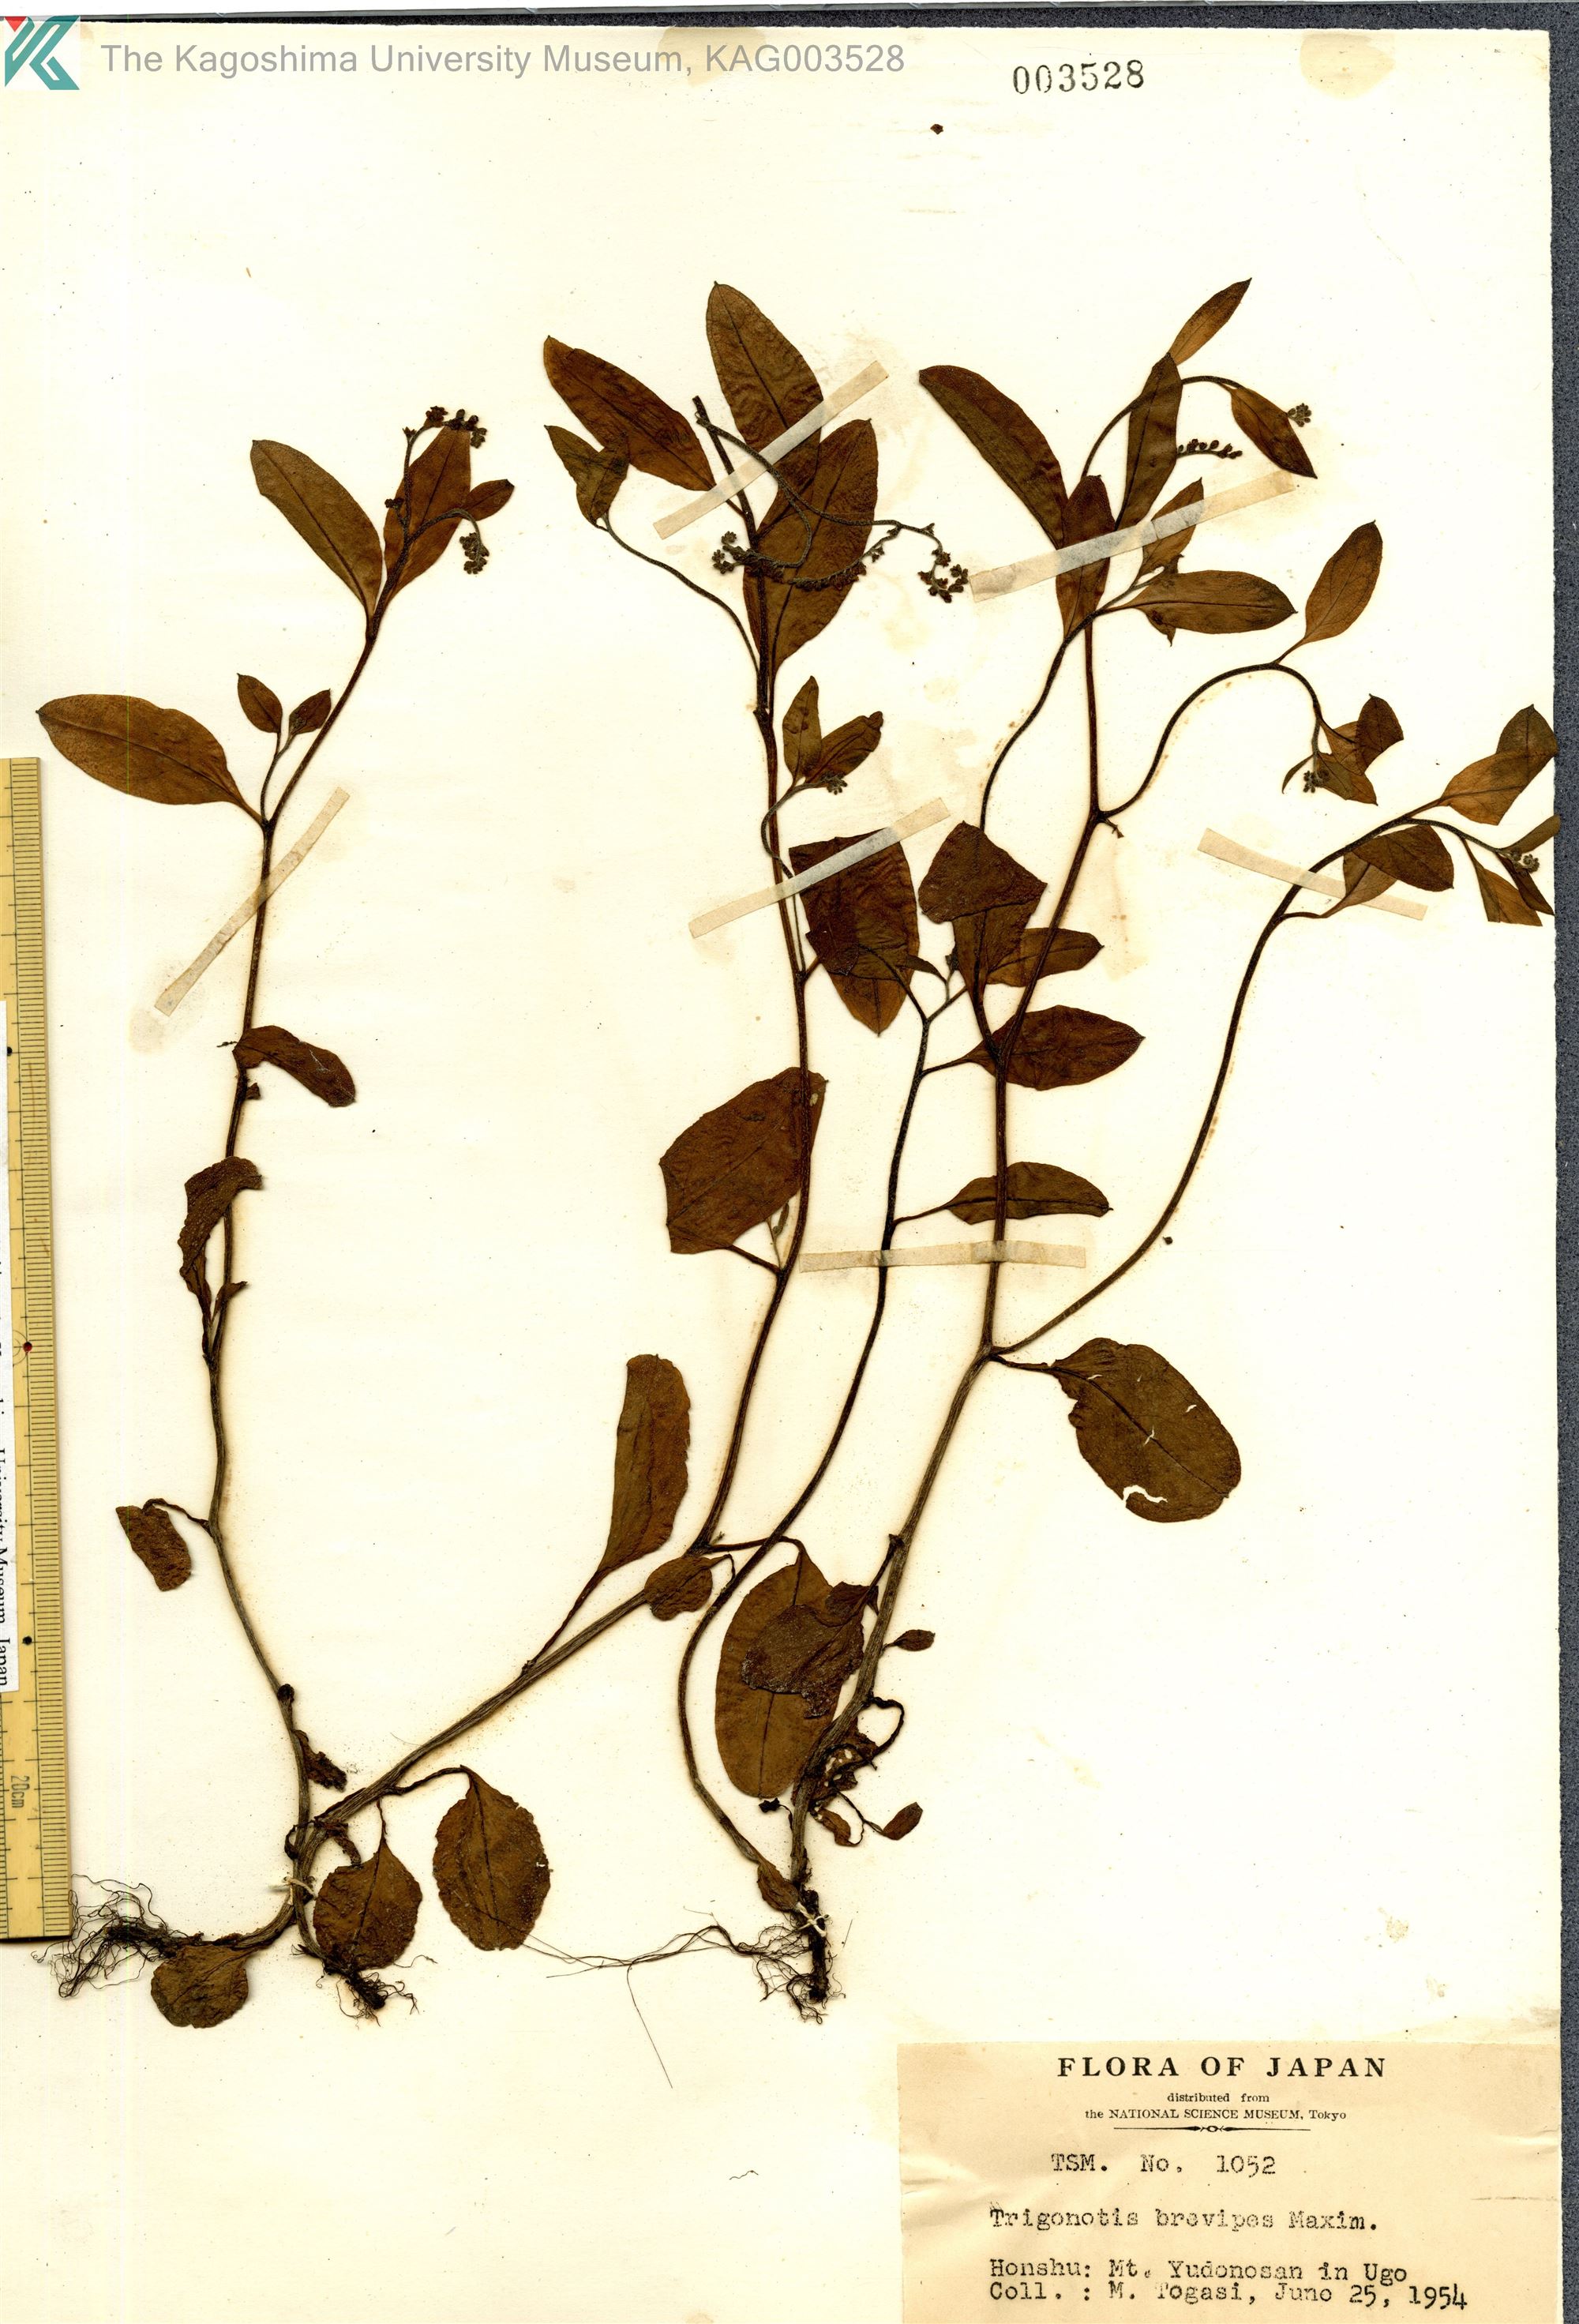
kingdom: Plantae
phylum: Tracheophyta
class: Magnoliopsida
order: Boraginales
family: Boraginaceae
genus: Trigonotis
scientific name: Trigonotis brevipes
